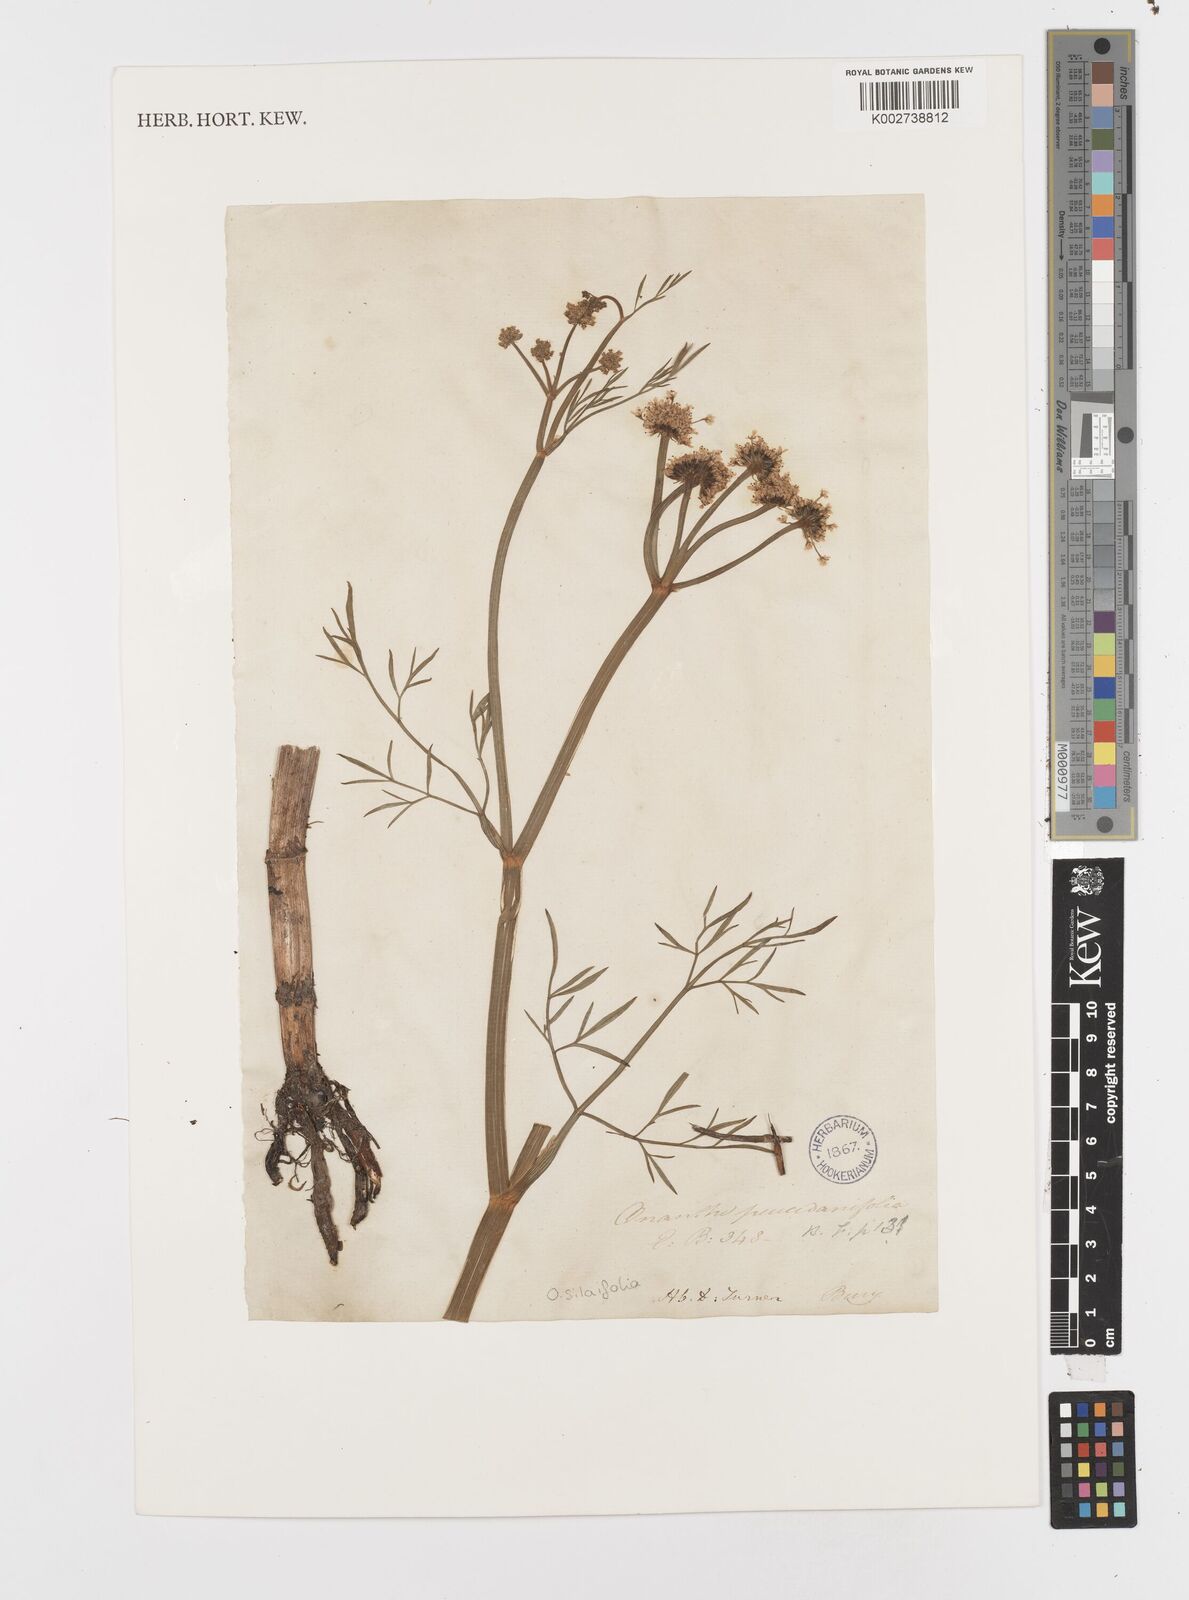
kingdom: Plantae
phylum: Tracheophyta
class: Magnoliopsida
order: Apiales
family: Apiaceae
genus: Oenanthe
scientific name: Oenanthe silaifolia
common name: Narrow-leaved water-dropwort
